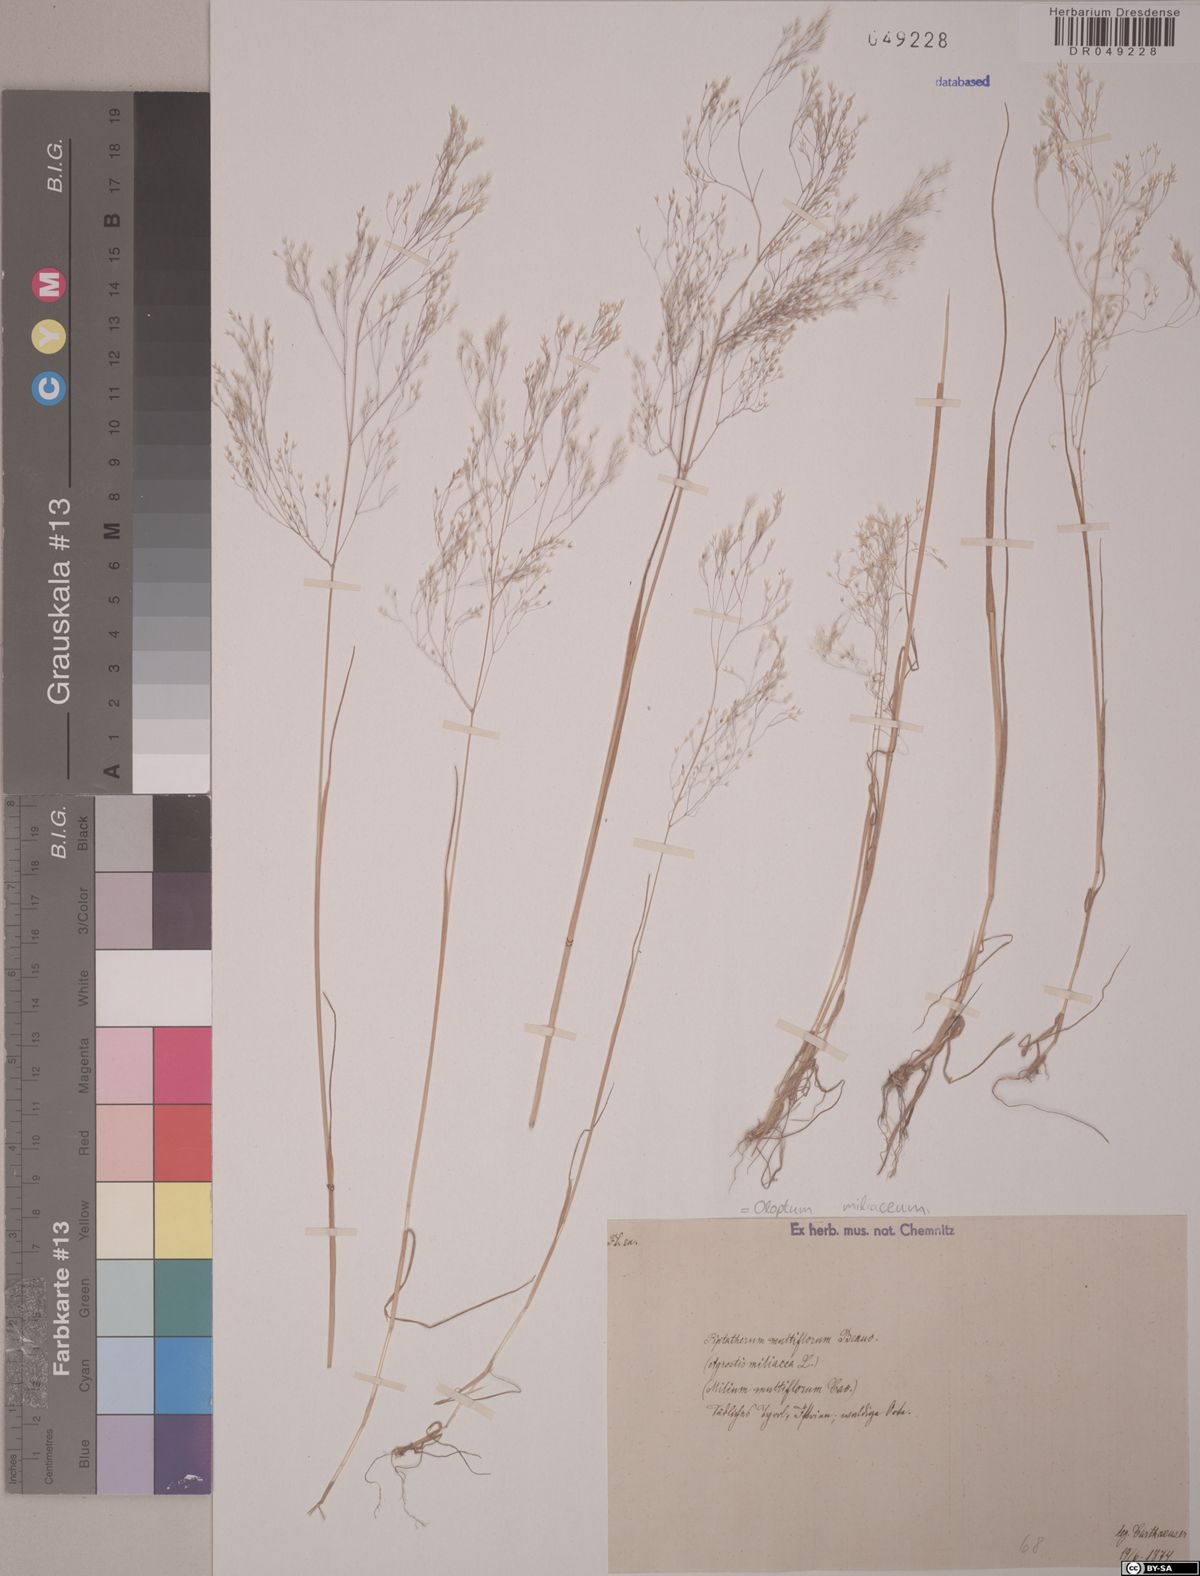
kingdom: Plantae
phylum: Tracheophyta
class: Liliopsida
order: Poales
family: Poaceae
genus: Oloptum
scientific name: Oloptum miliaceum
